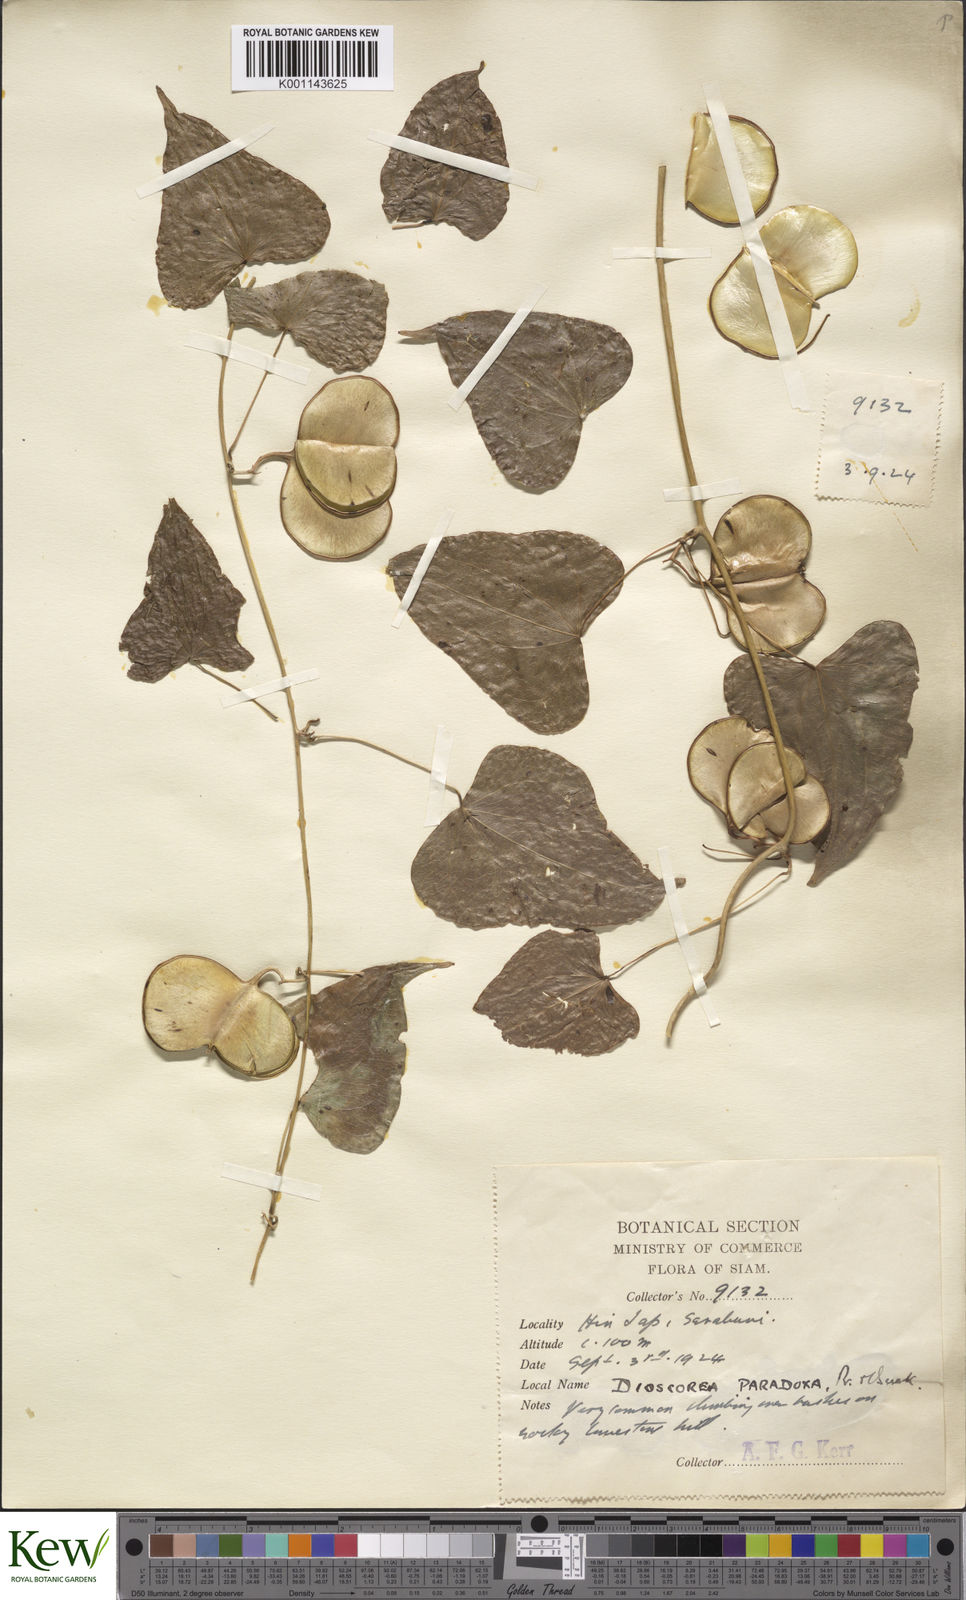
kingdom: Plantae
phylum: Tracheophyta
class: Liliopsida
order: Dioscoreales
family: Dioscoreaceae
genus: Dioscorea
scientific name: Dioscorea paradoxa
